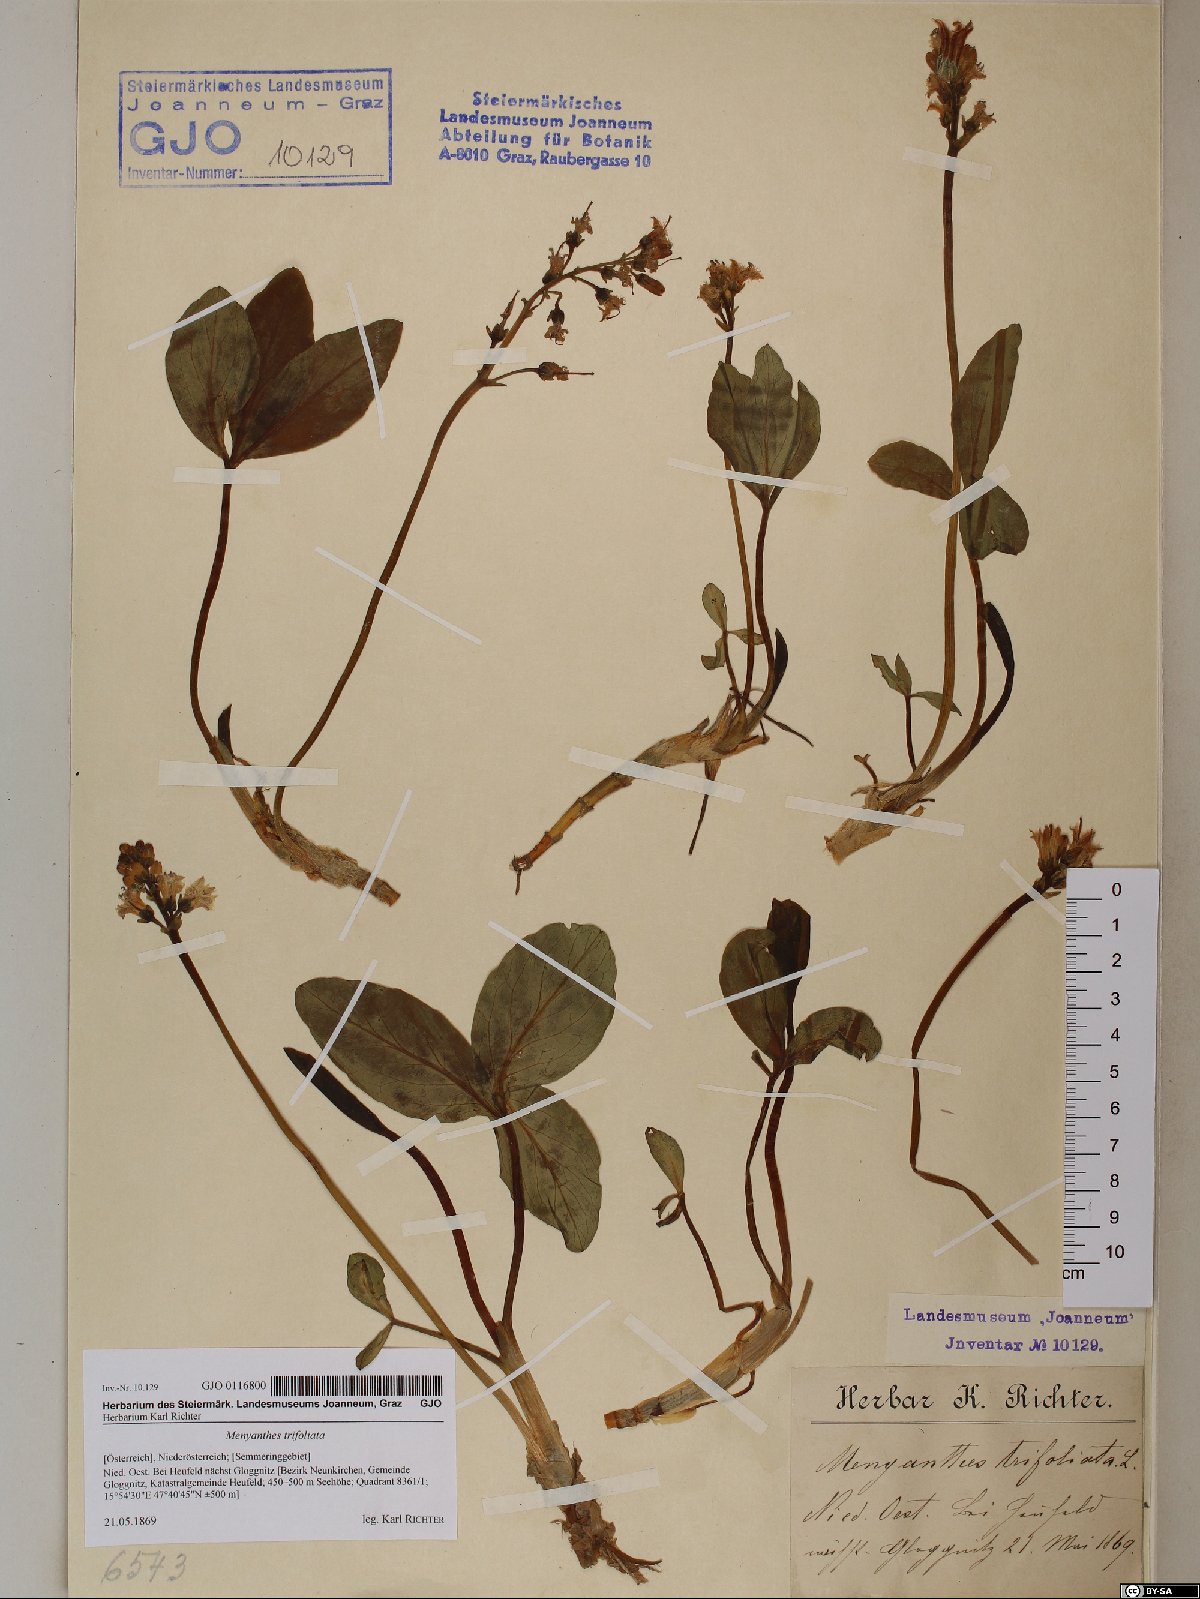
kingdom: Plantae
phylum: Tracheophyta
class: Magnoliopsida
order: Asterales
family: Menyanthaceae
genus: Menyanthes
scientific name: Menyanthes trifoliata
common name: Bogbean
